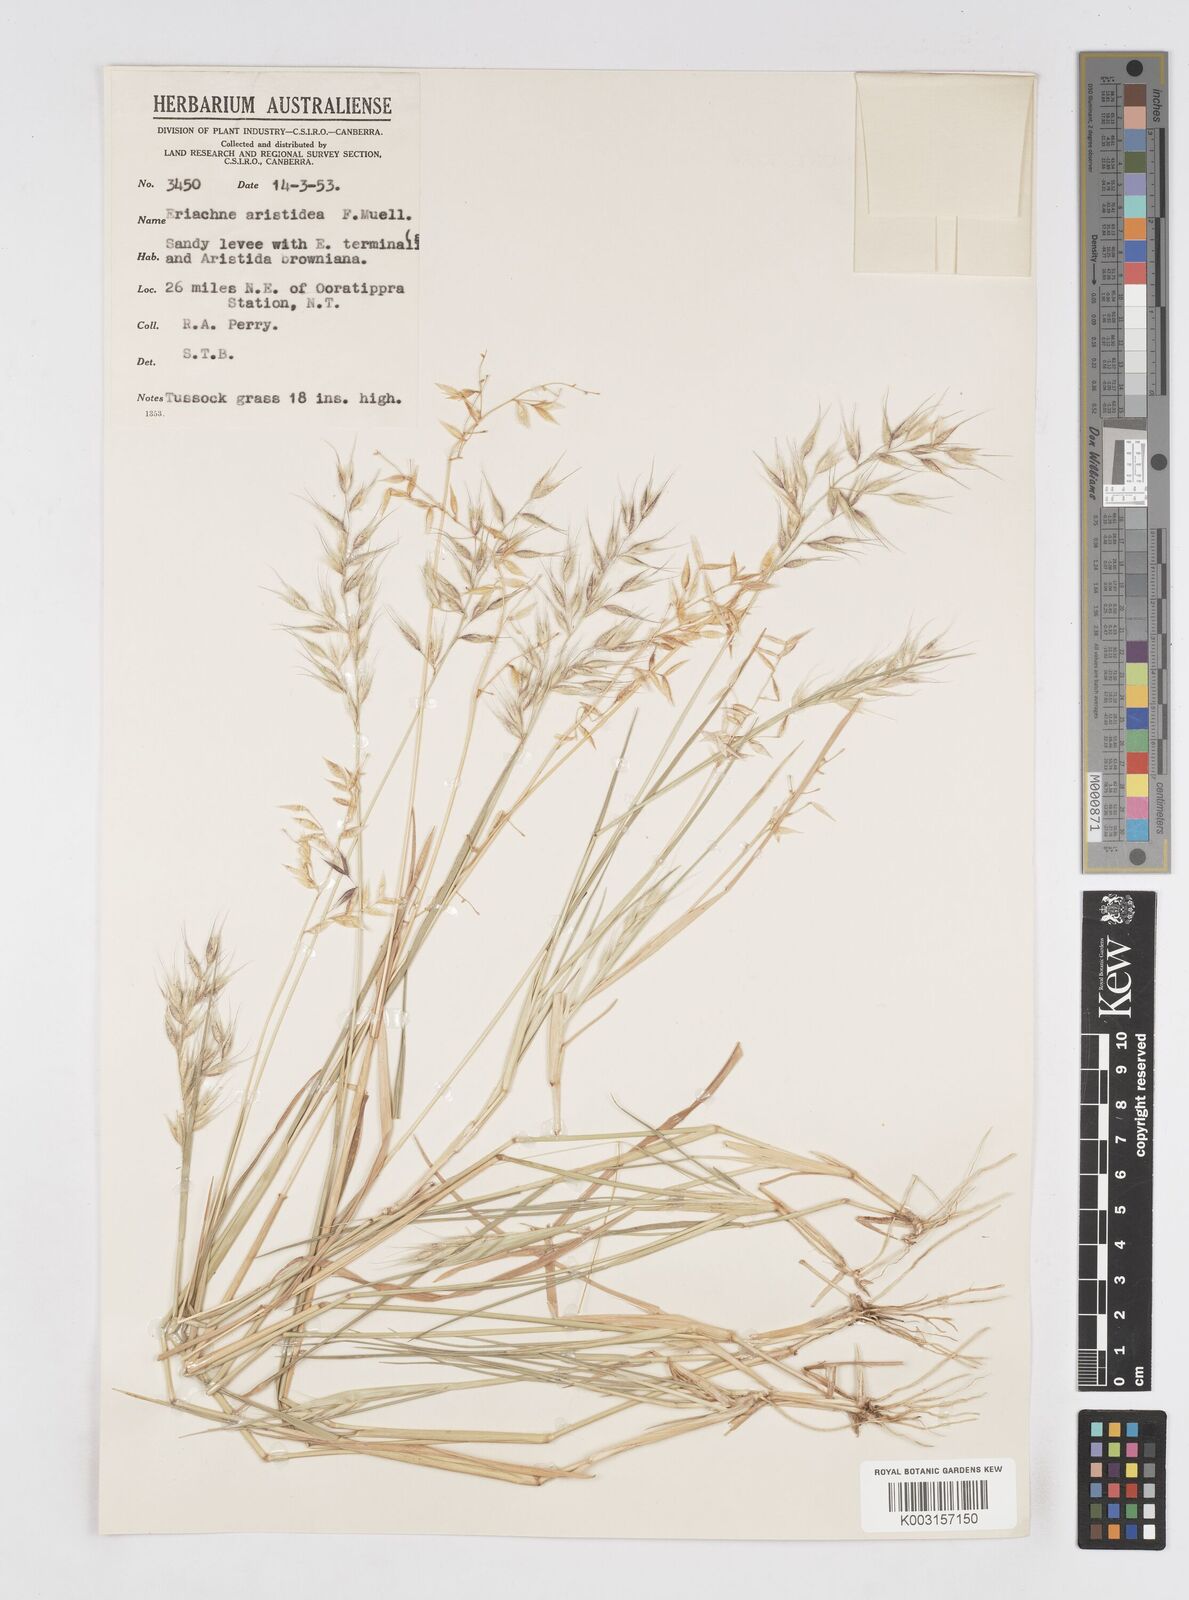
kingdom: Plantae
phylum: Tracheophyta
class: Liliopsida
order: Poales
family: Poaceae
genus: Eriachne
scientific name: Eriachne aristidea
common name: Three-awn wanderrie grass
